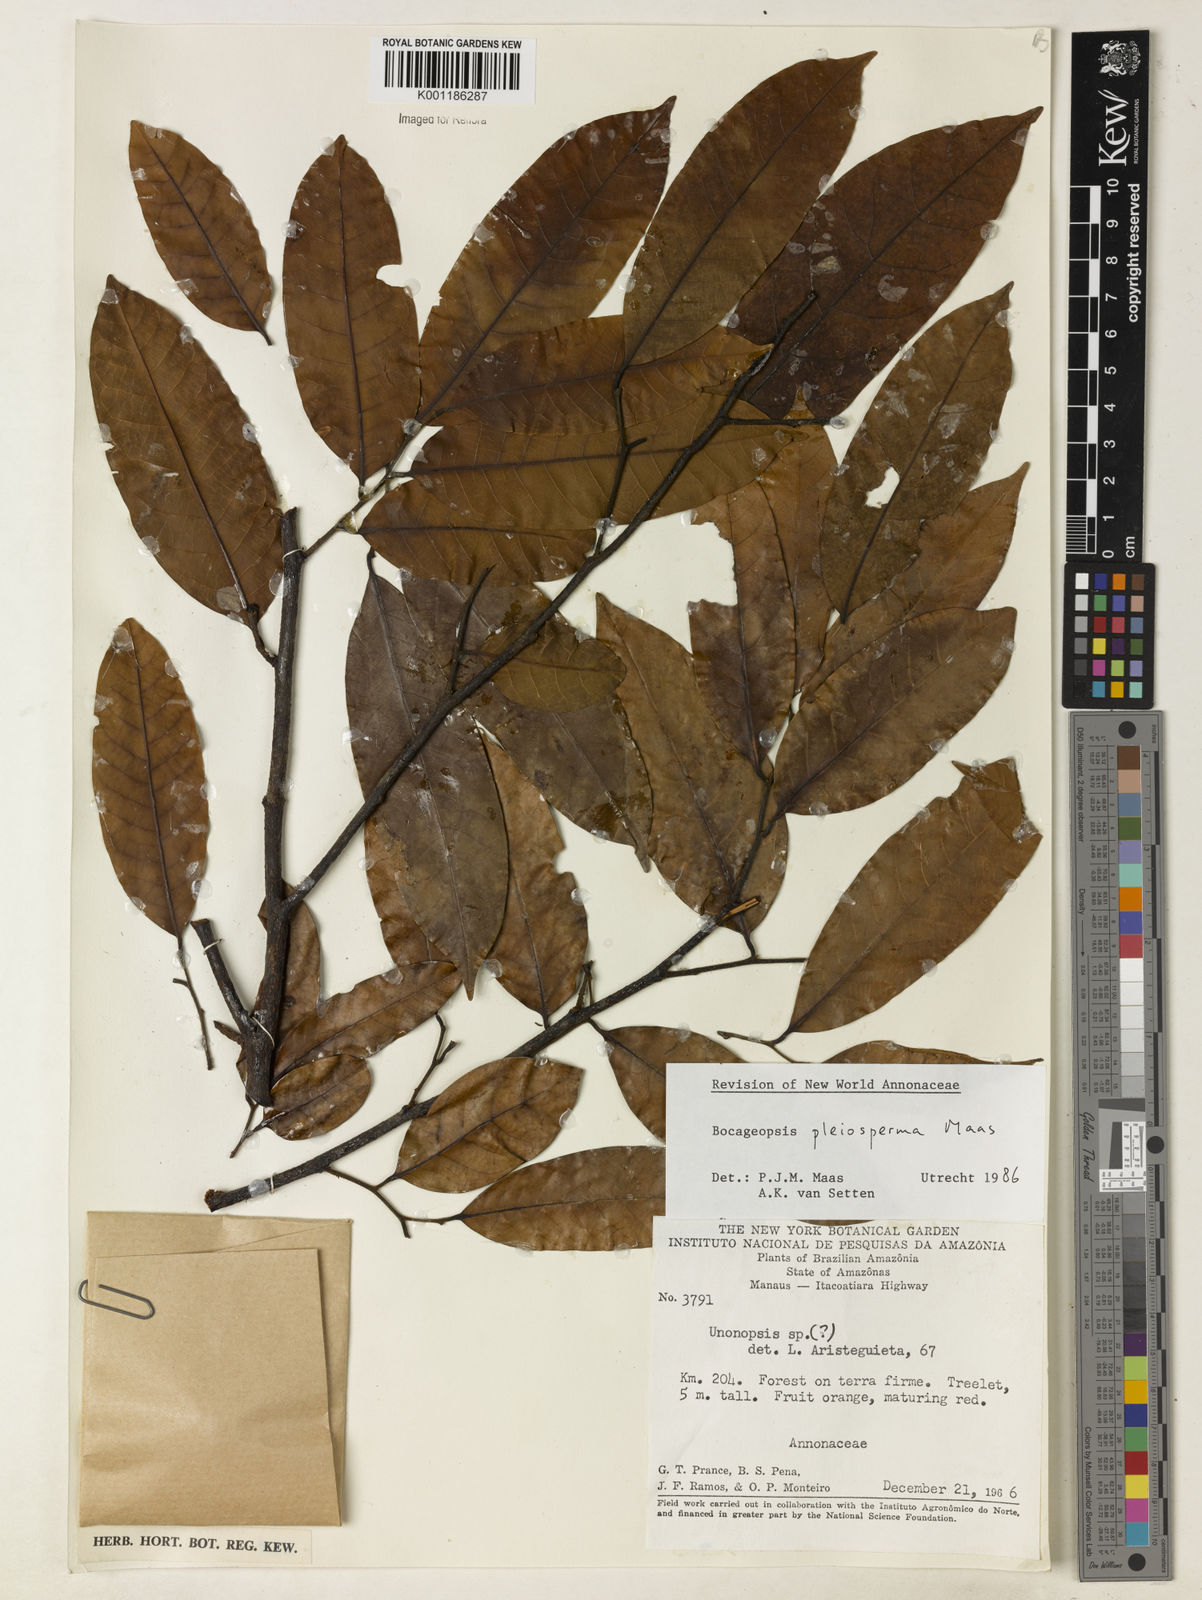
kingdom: Plantae
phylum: Tracheophyta
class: Magnoliopsida
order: Magnoliales
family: Annonaceae
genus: Bocageopsis
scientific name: Bocageopsis pleiosperma
